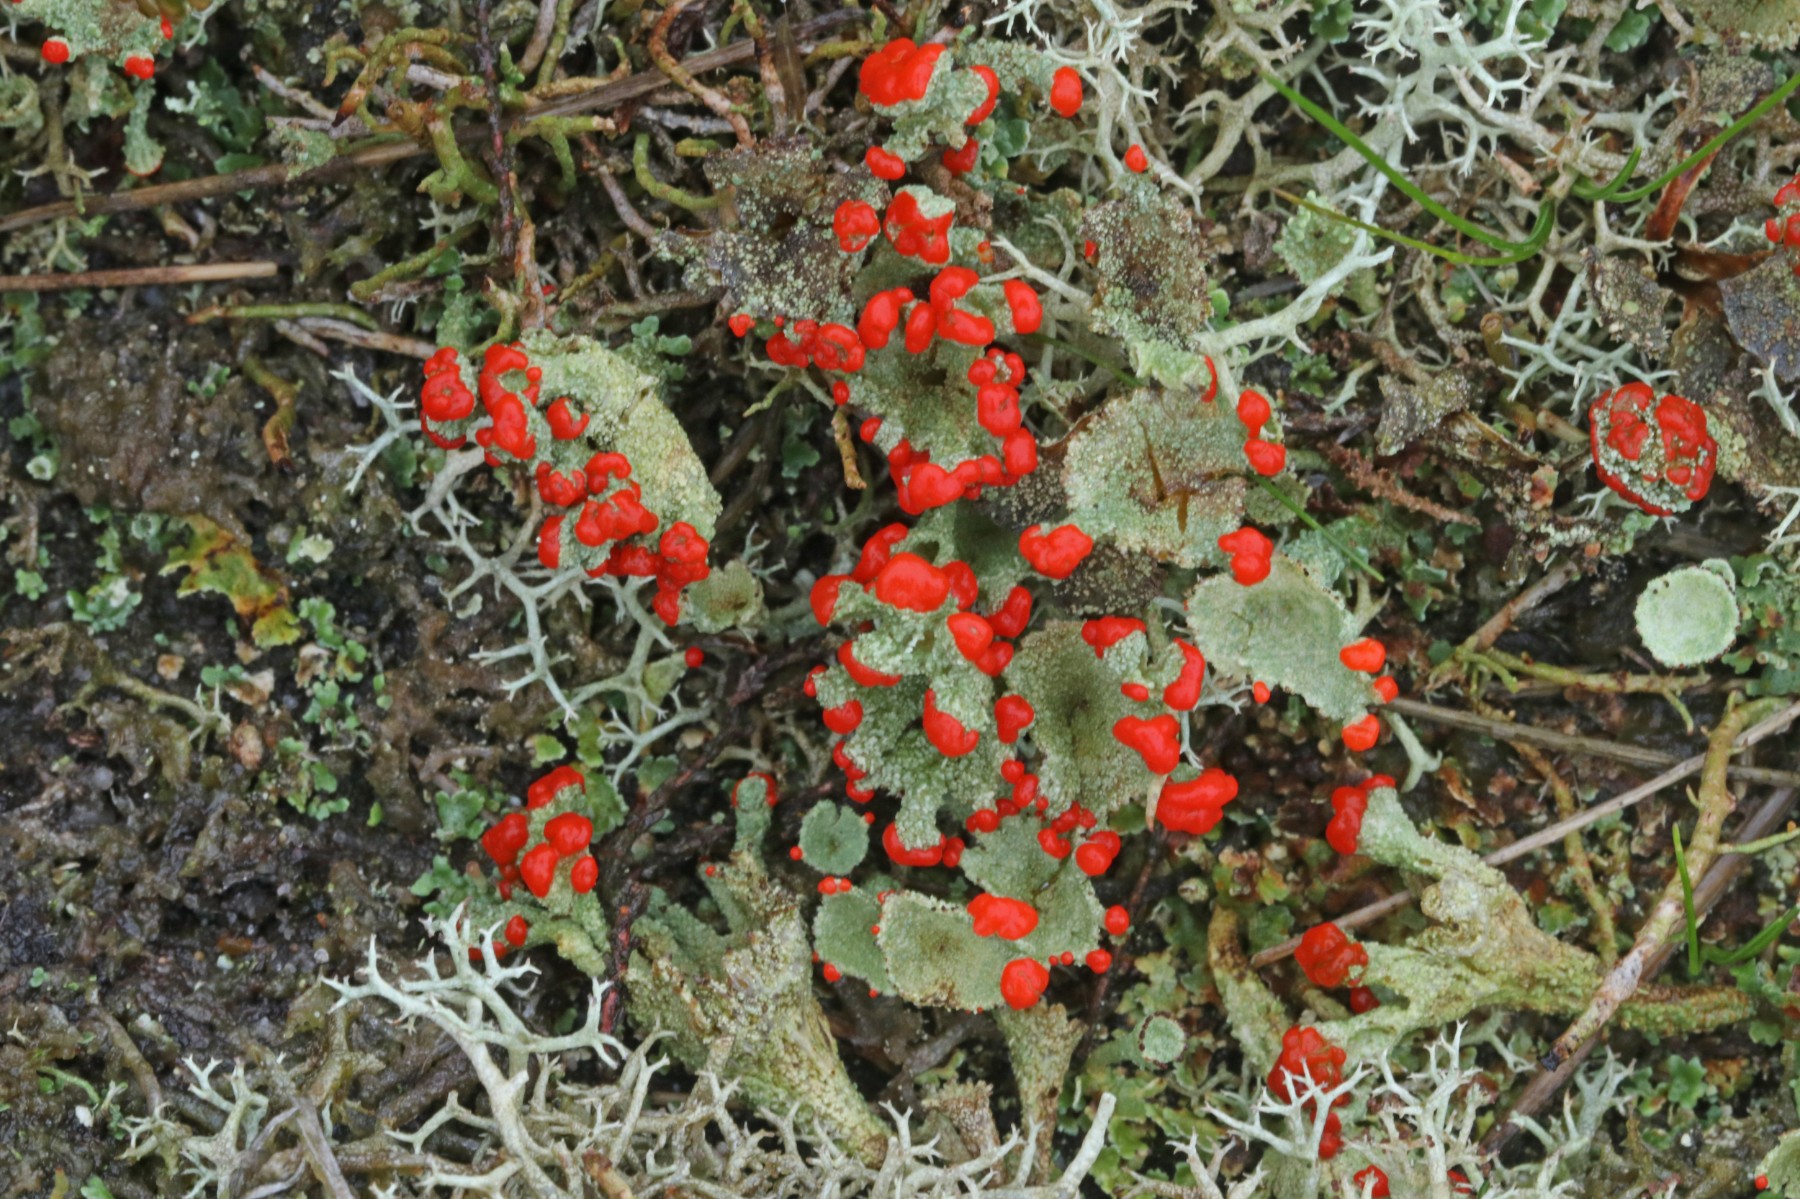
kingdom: Fungi
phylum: Ascomycota
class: Lecanoromycetes
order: Lecanorales
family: Cladoniaceae
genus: Cladonia
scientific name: Cladonia diversa
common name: rød bægerlav
